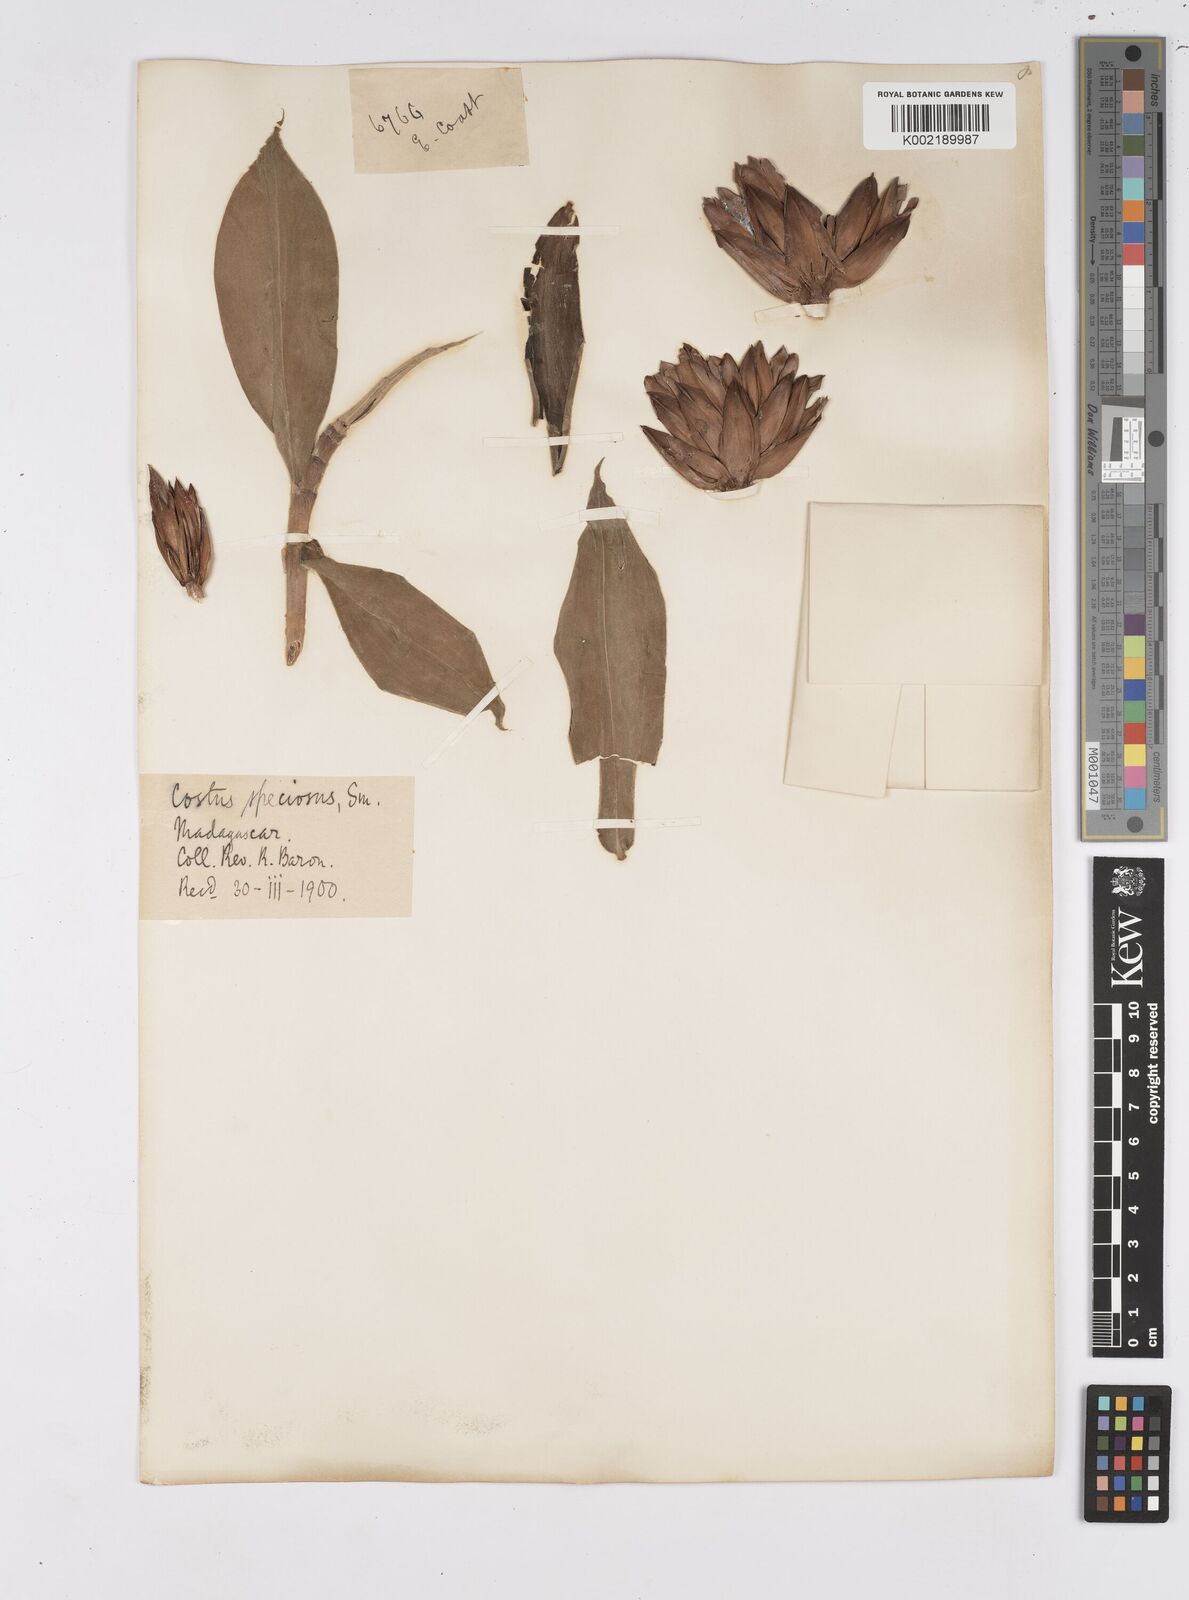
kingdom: Plantae
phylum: Tracheophyta
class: Liliopsida
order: Zingiberales
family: Costaceae
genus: Hellenia
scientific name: Hellenia speciosa
